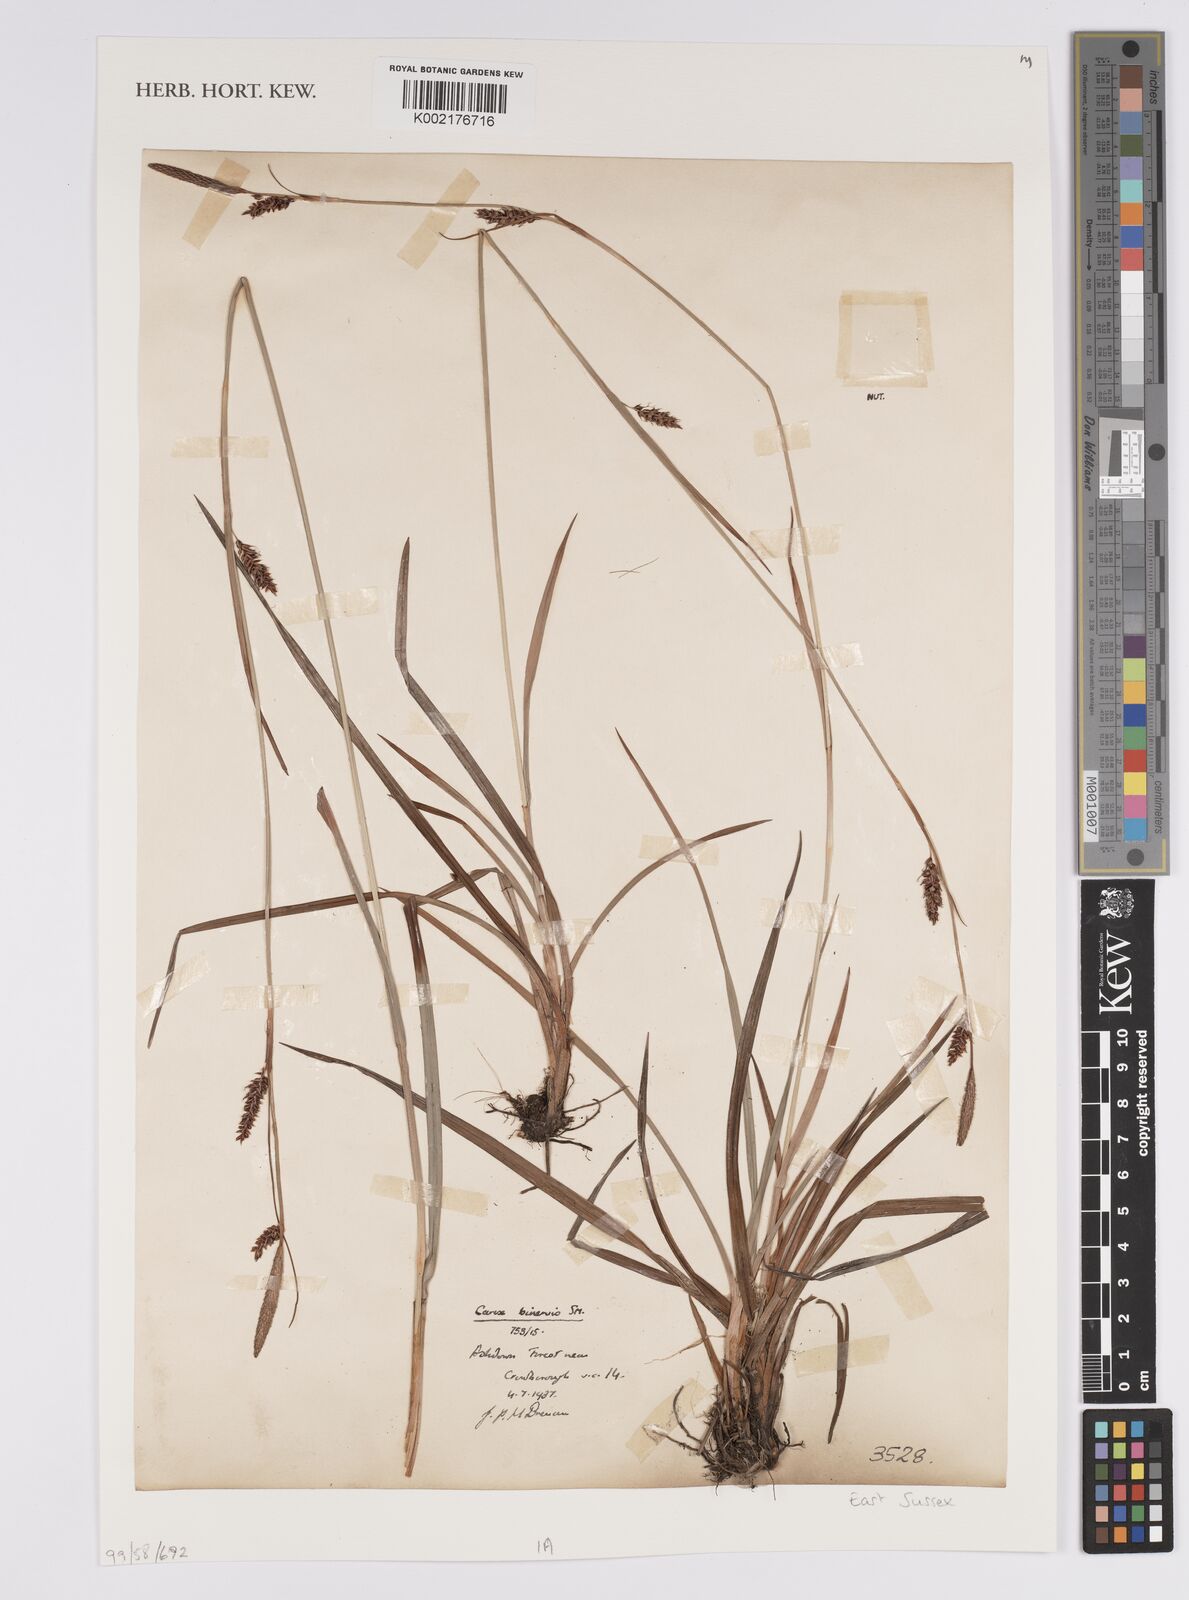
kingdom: Plantae
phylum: Tracheophyta
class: Liliopsida
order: Poales
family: Cyperaceae
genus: Carex
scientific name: Carex binervis
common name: Green-ribbed sedge
